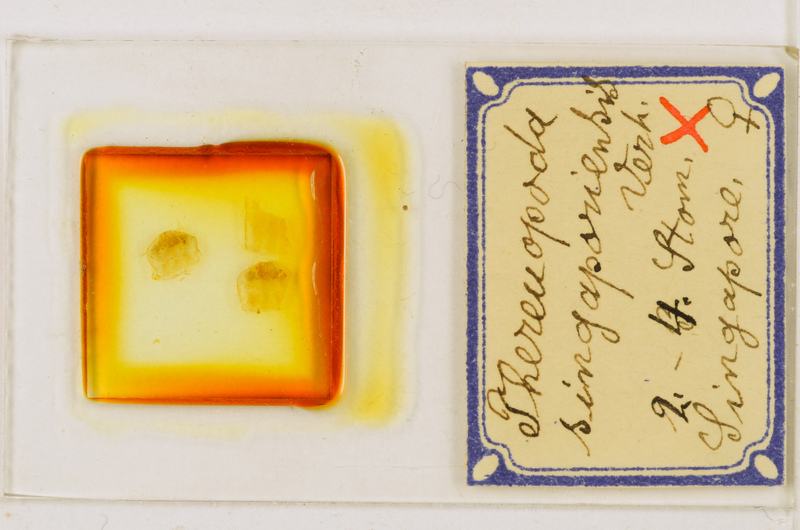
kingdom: Animalia
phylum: Arthropoda
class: Chilopoda
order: Scutigeromorpha
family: Scutigeridae
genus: Thereuopoda
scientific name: Thereuopoda longicornis
